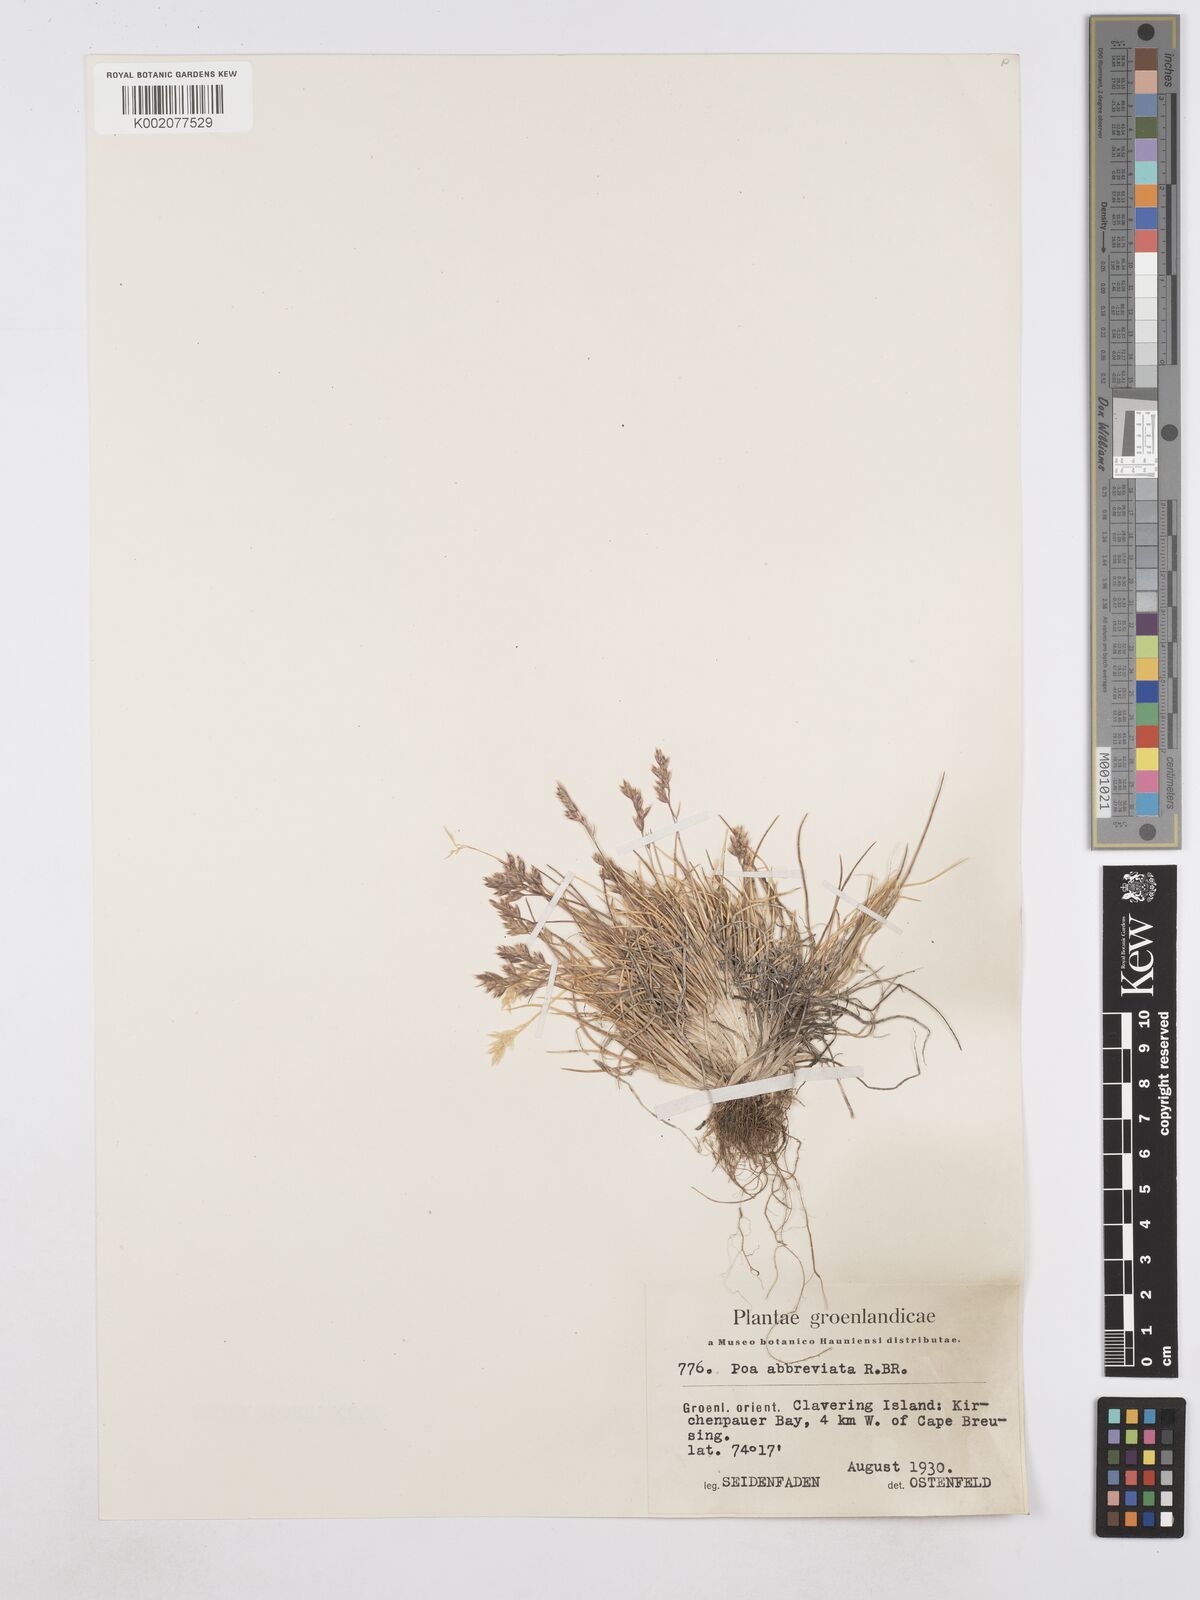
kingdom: Plantae
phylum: Tracheophyta
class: Liliopsida
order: Poales
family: Poaceae
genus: Poa
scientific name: Poa abbreviata
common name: Abbreviated bluegrass
